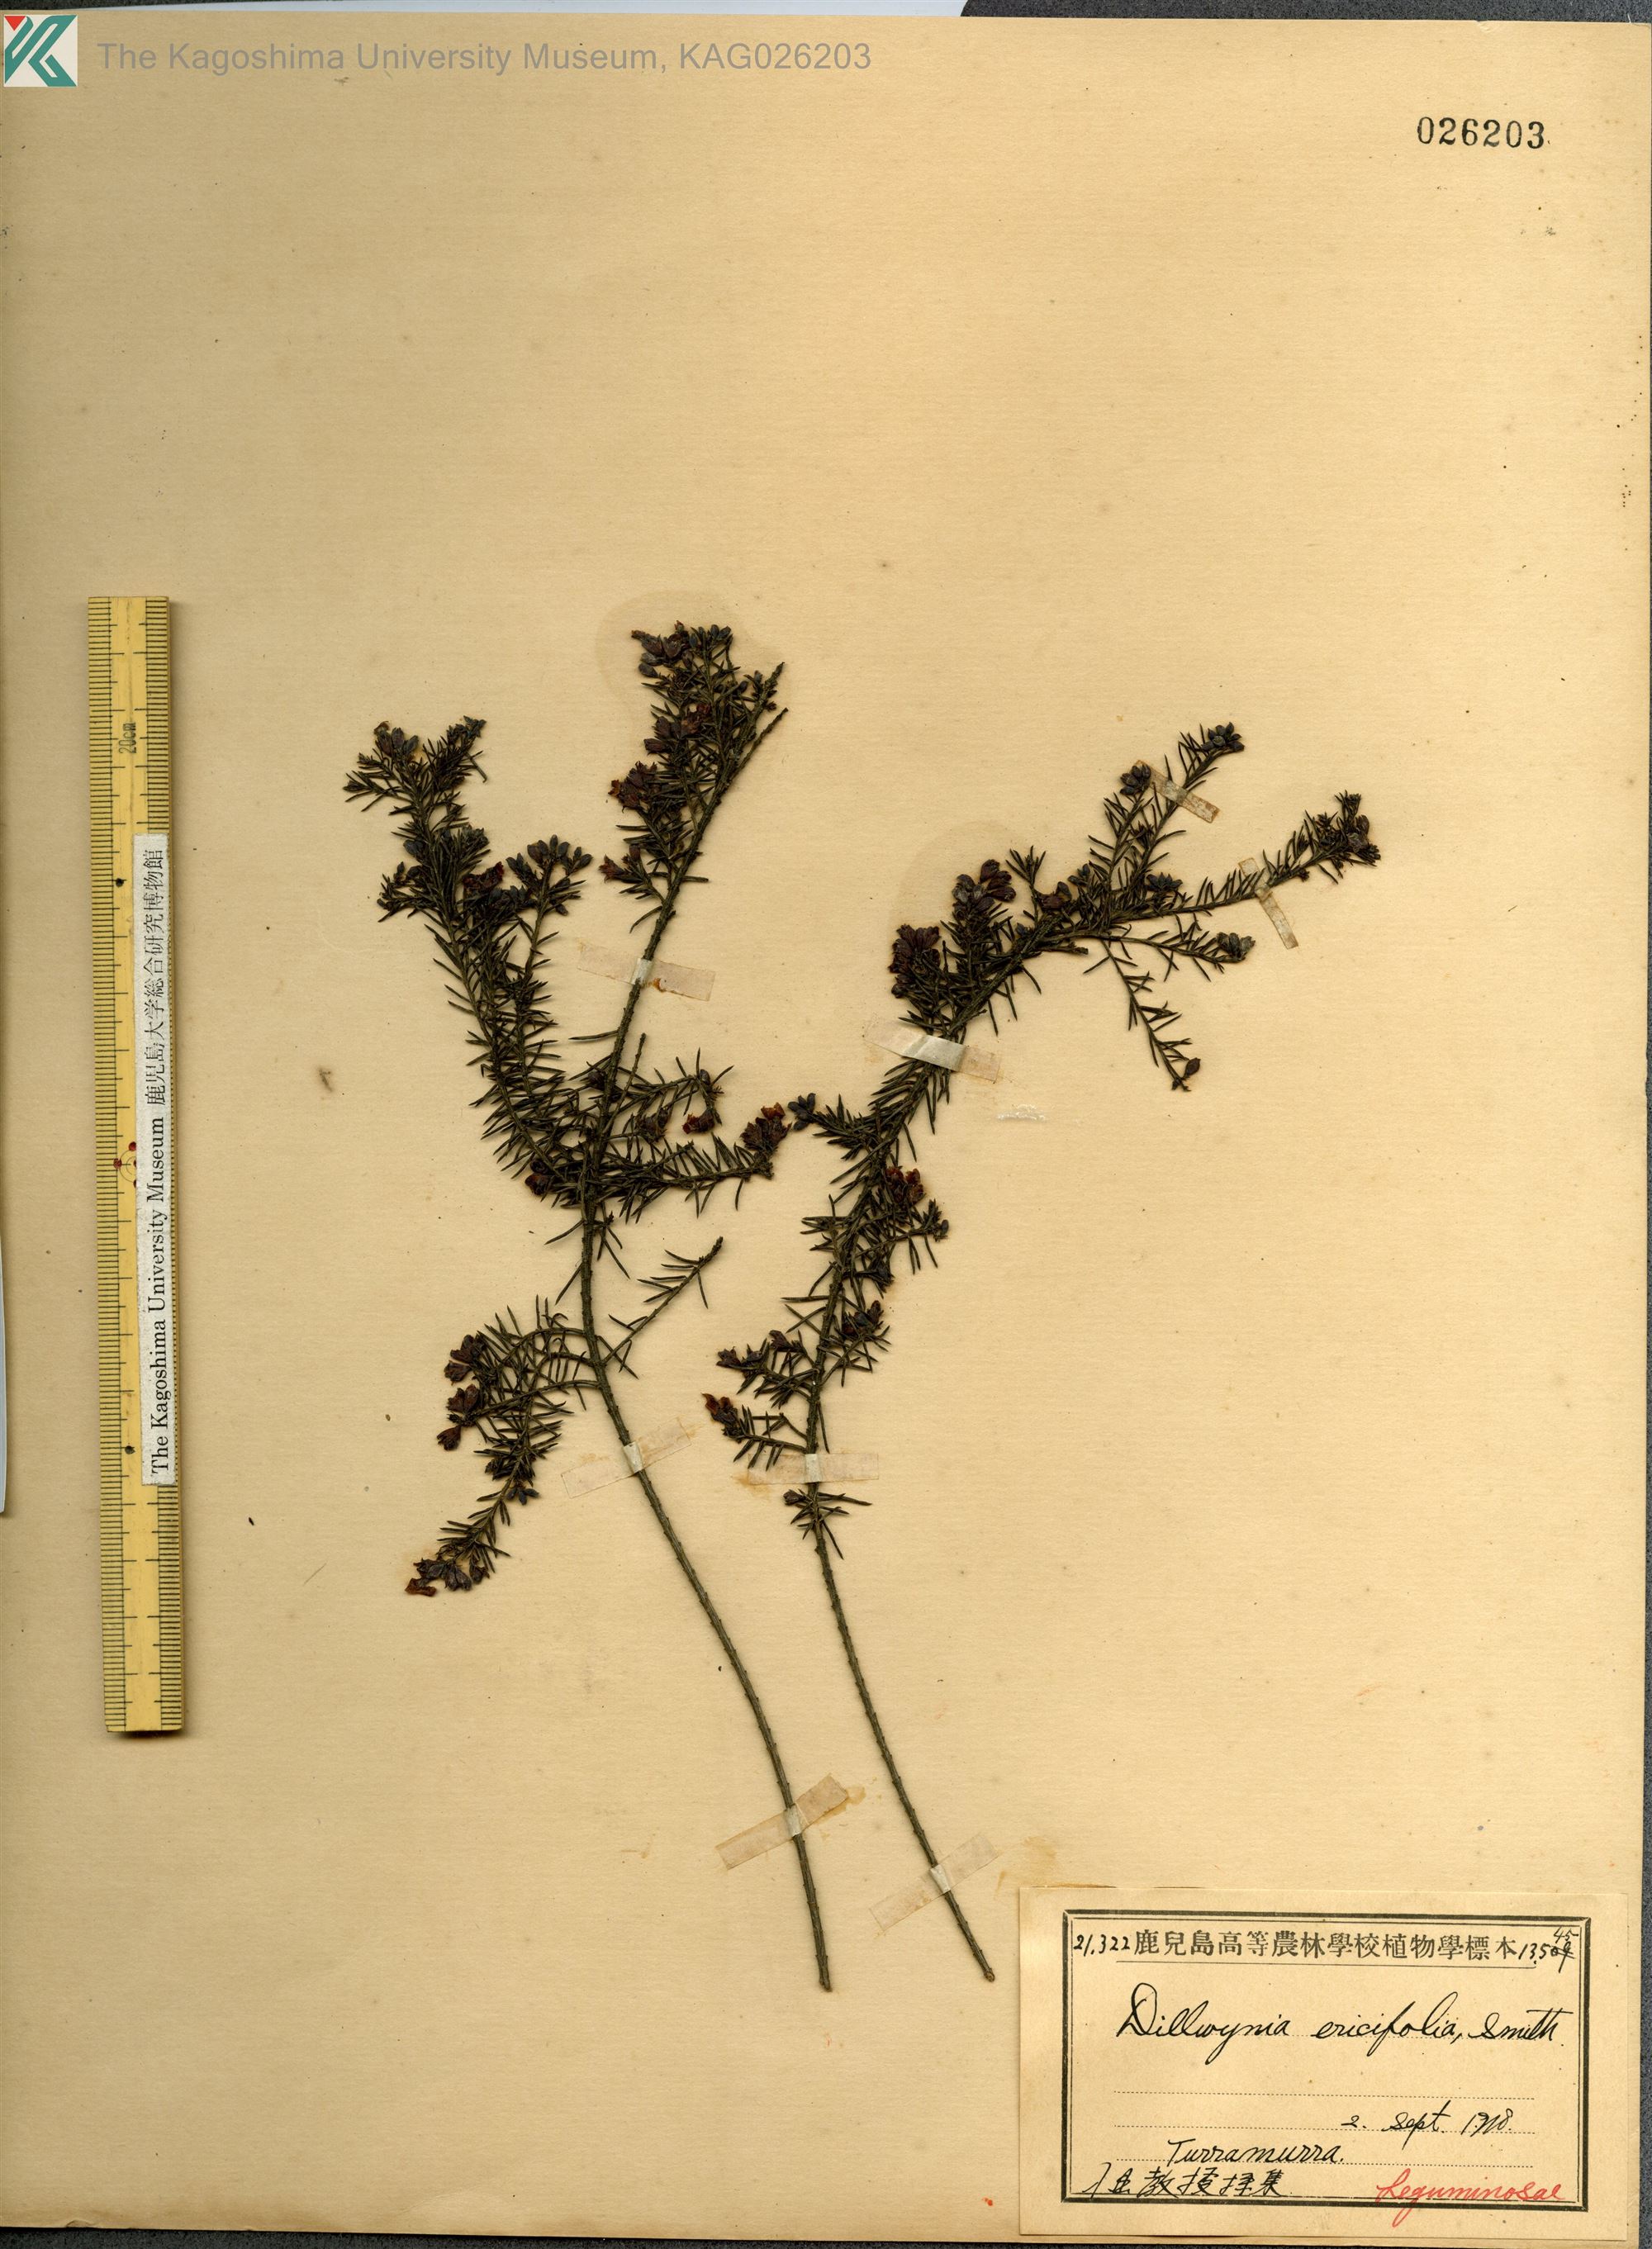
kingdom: Plantae
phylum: Tracheophyta
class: Magnoliopsida
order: Fabales
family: Fabaceae
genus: Dillwynia
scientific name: Dillwynia retorta
